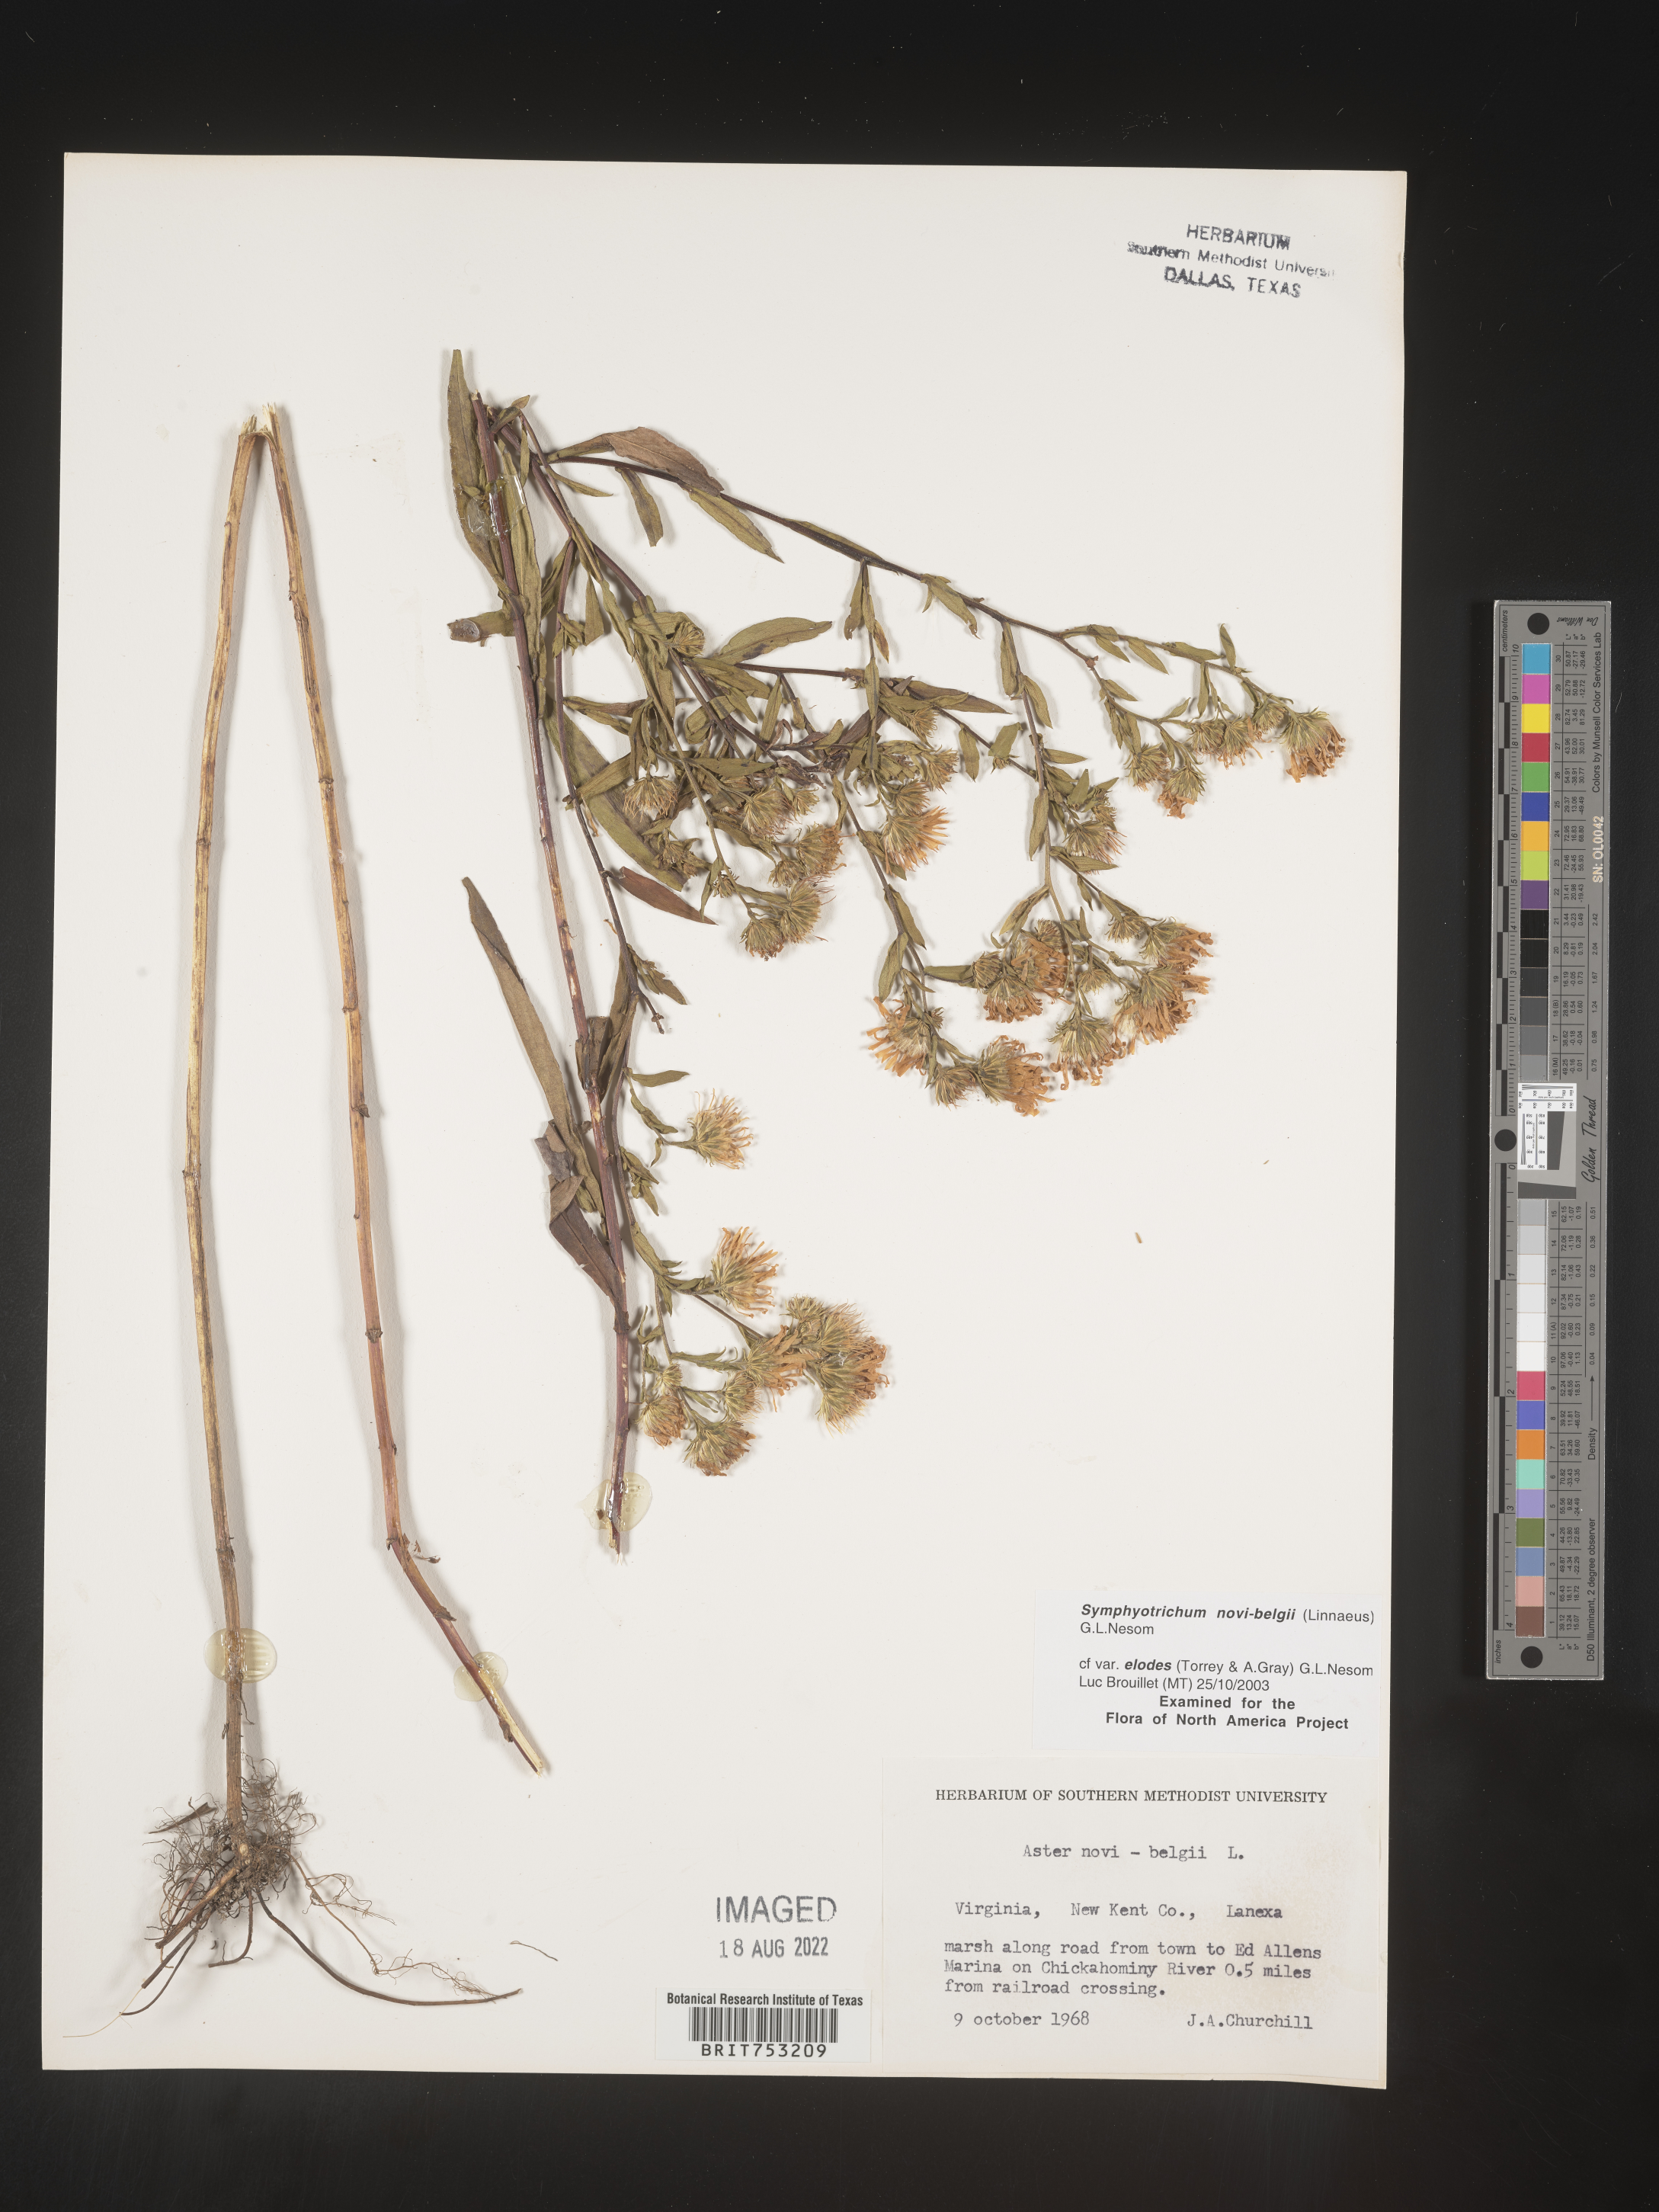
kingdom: Plantae
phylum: Tracheophyta
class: Magnoliopsida
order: Asterales
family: Asteraceae
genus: Symphyotrichum
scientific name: Symphyotrichum novi-belgii
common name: Michaelmas daisy
